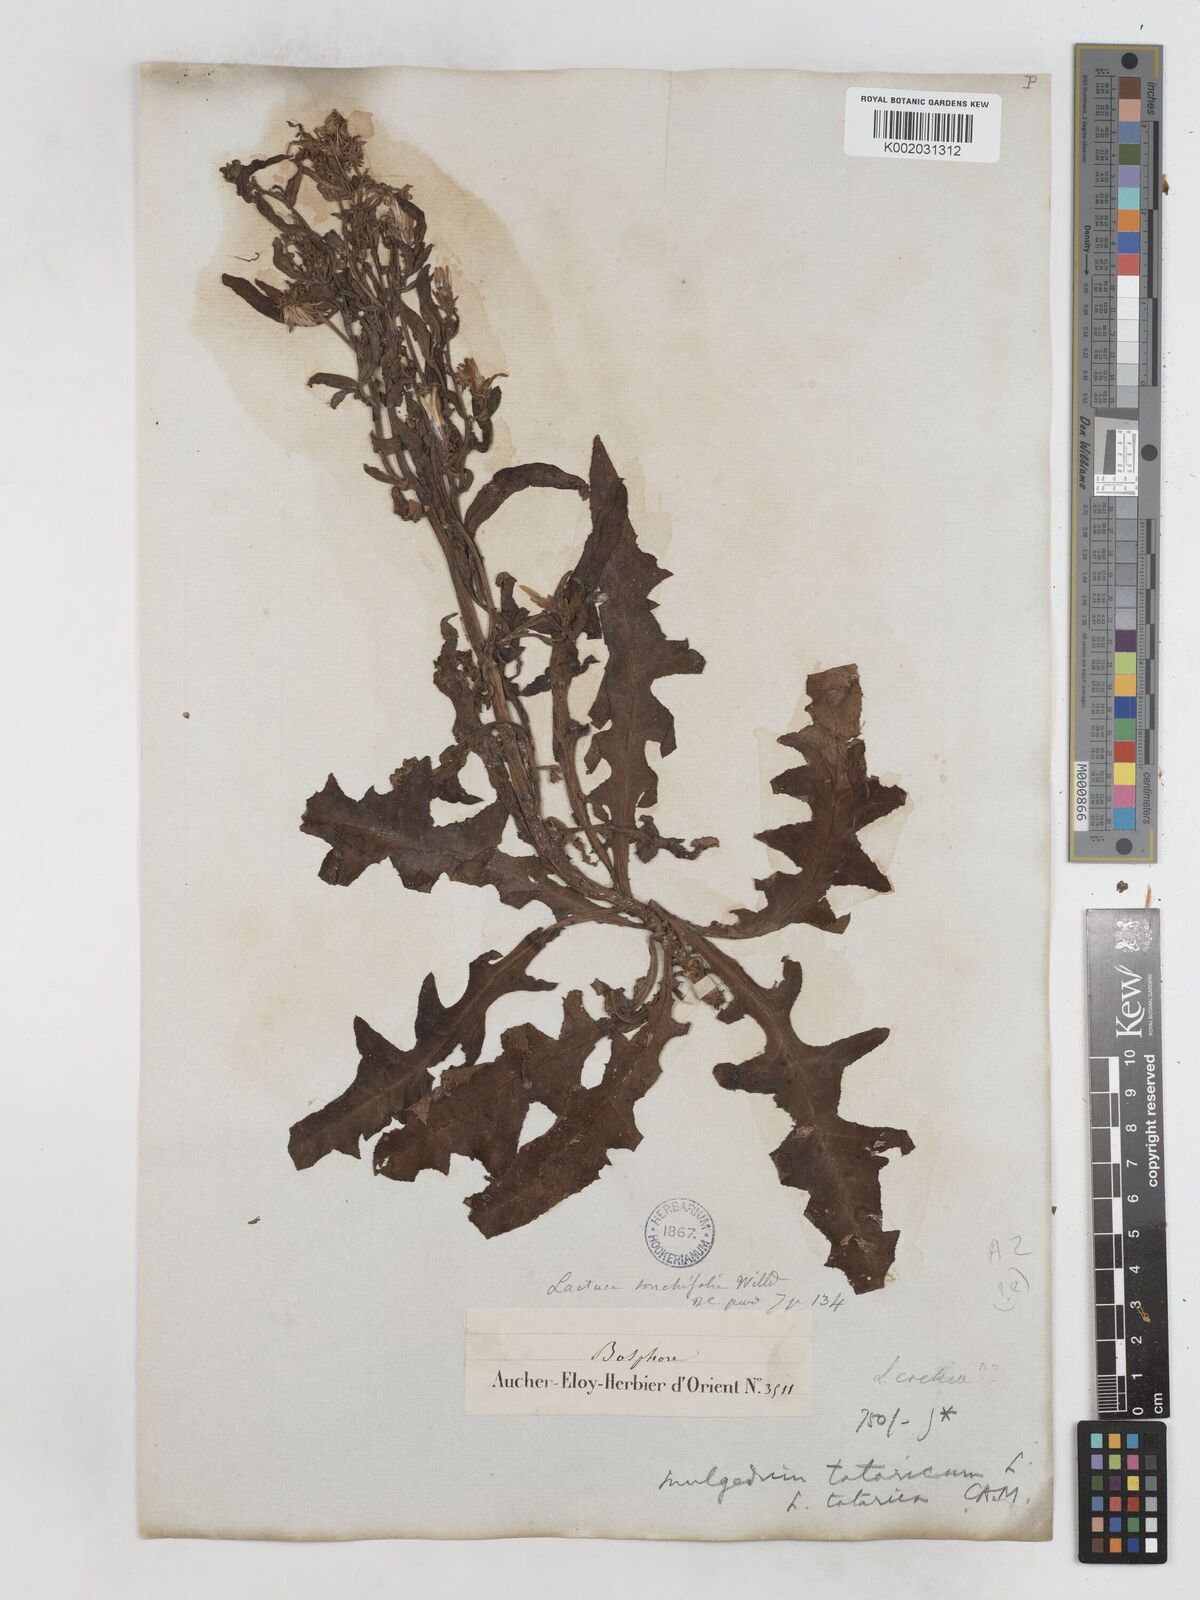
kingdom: Plantae
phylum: Tracheophyta
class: Magnoliopsida
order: Asterales
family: Asteraceae
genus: Lactuca
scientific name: Lactuca tatarica
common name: Blue lettuce
